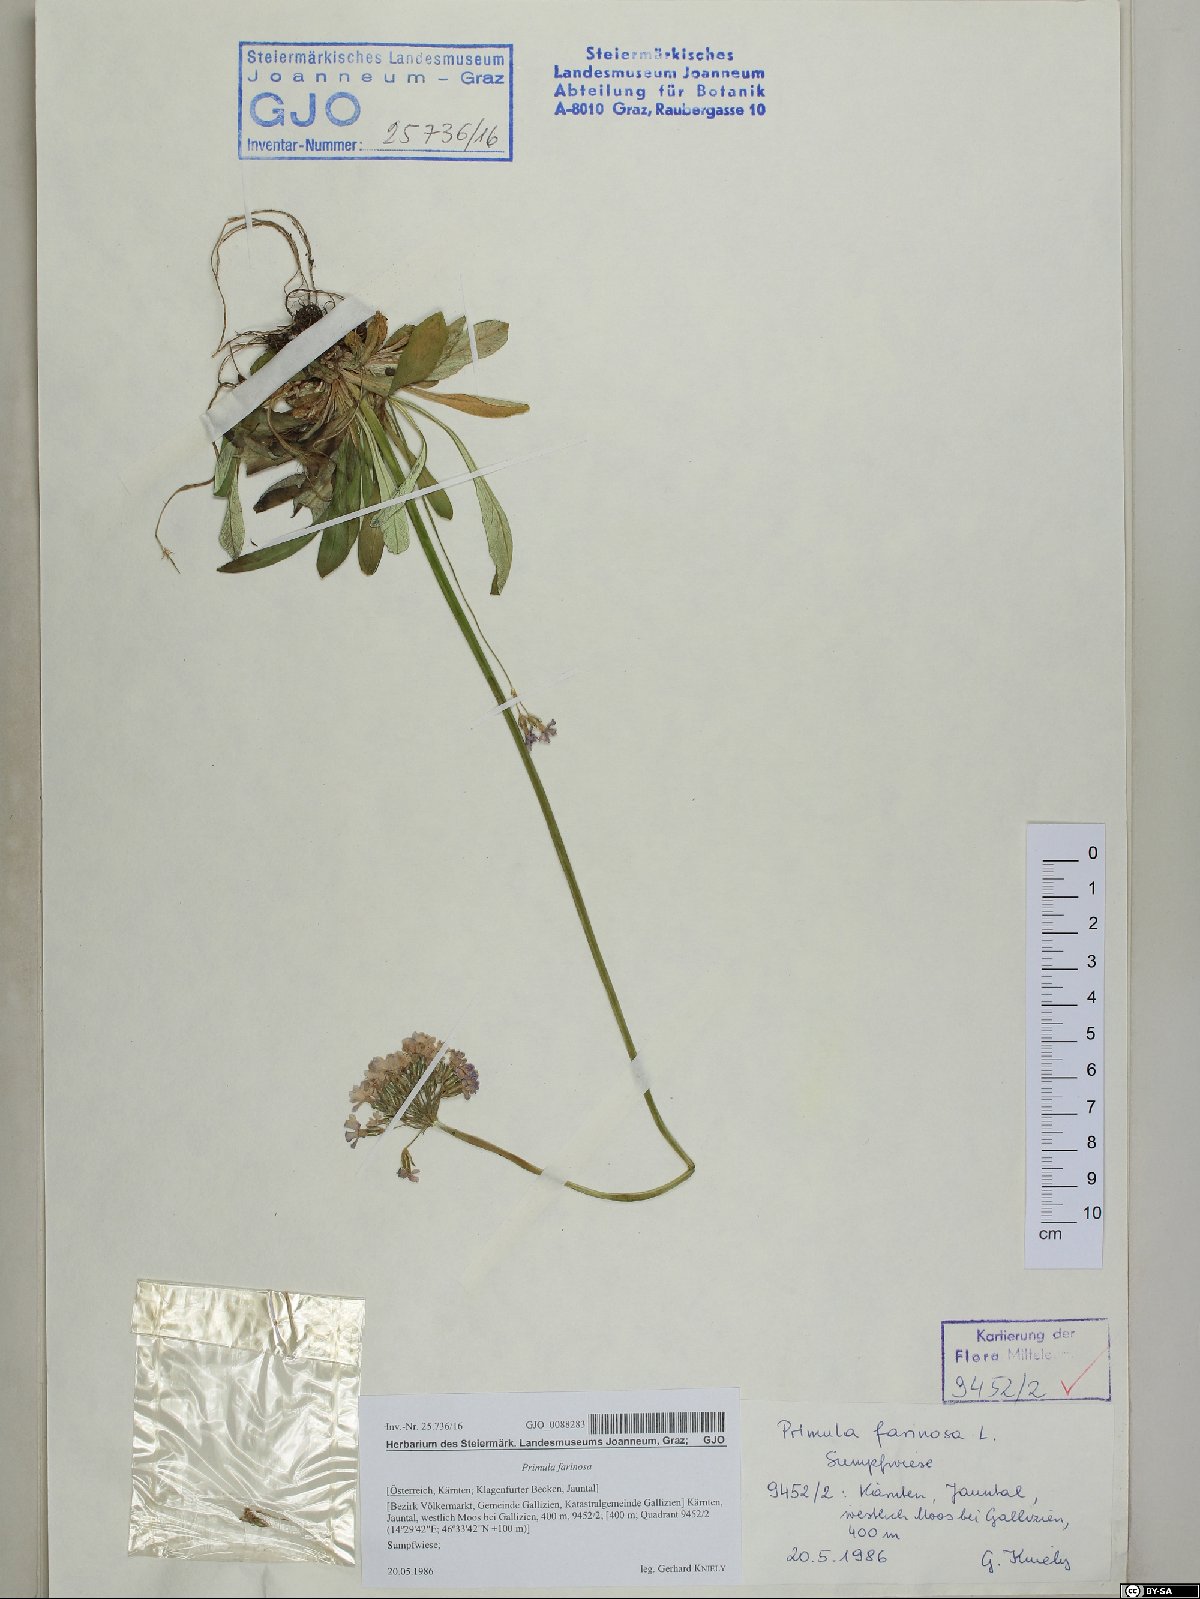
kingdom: Plantae
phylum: Tracheophyta
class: Magnoliopsida
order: Ericales
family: Primulaceae
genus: Primula
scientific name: Primula farinosa
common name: Bird's-eye primrose
